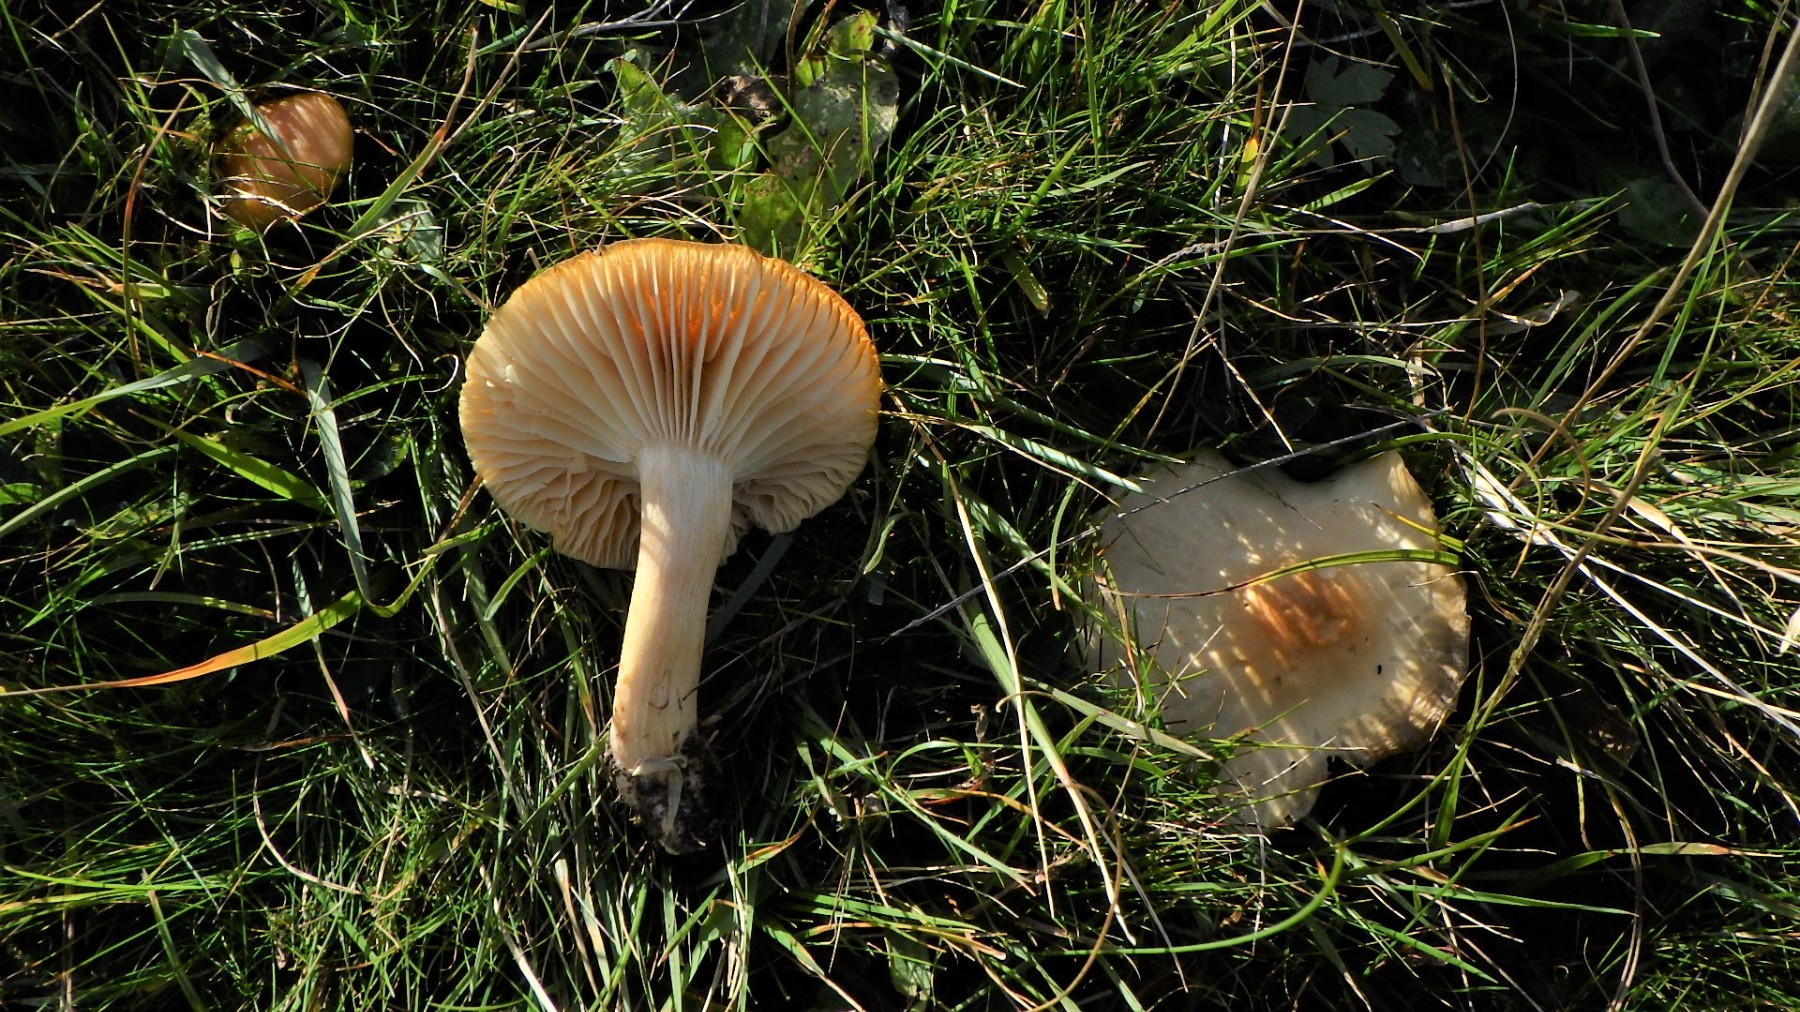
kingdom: Fungi
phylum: Basidiomycota
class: Agaricomycetes
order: Agaricales
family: Hygrophoraceae
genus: Cuphophyllus
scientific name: Cuphophyllus pratensis
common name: eng-vokshat
